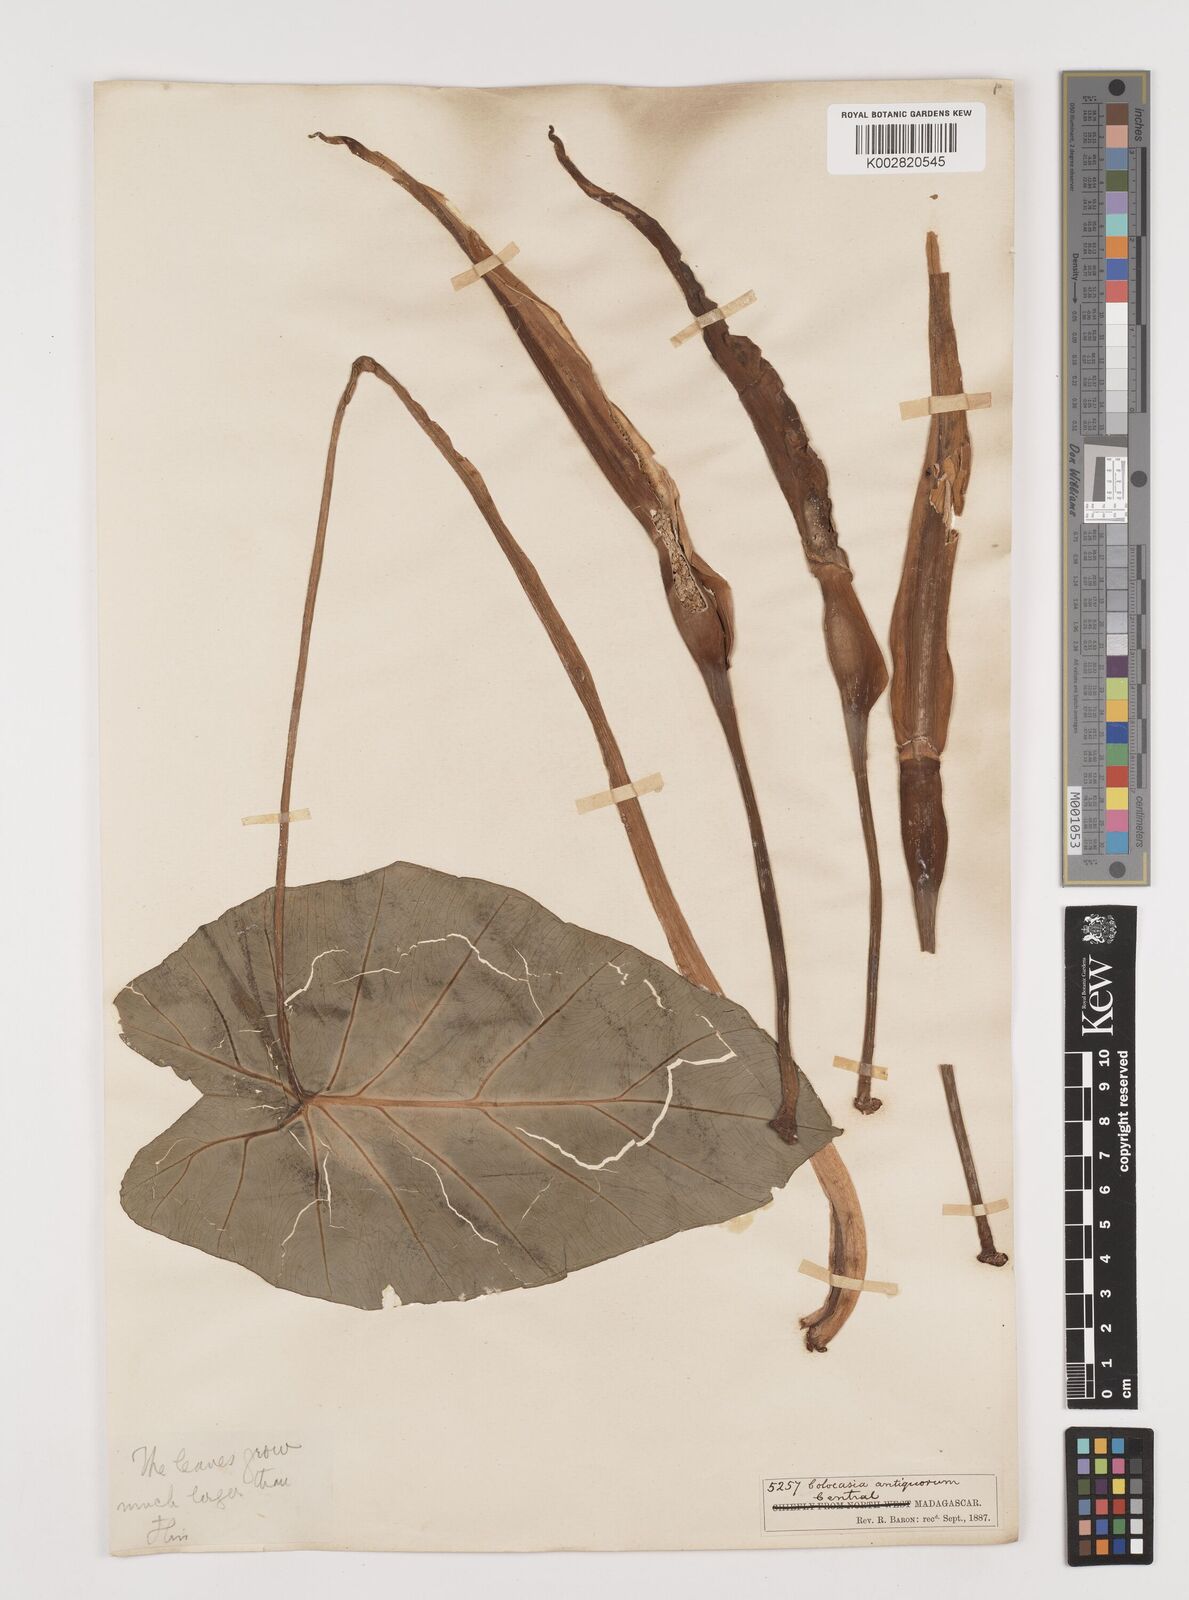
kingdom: Plantae
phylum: Tracheophyta
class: Liliopsida
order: Alismatales
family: Araceae
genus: Colocasia
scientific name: Colocasia esculenta
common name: Taro
